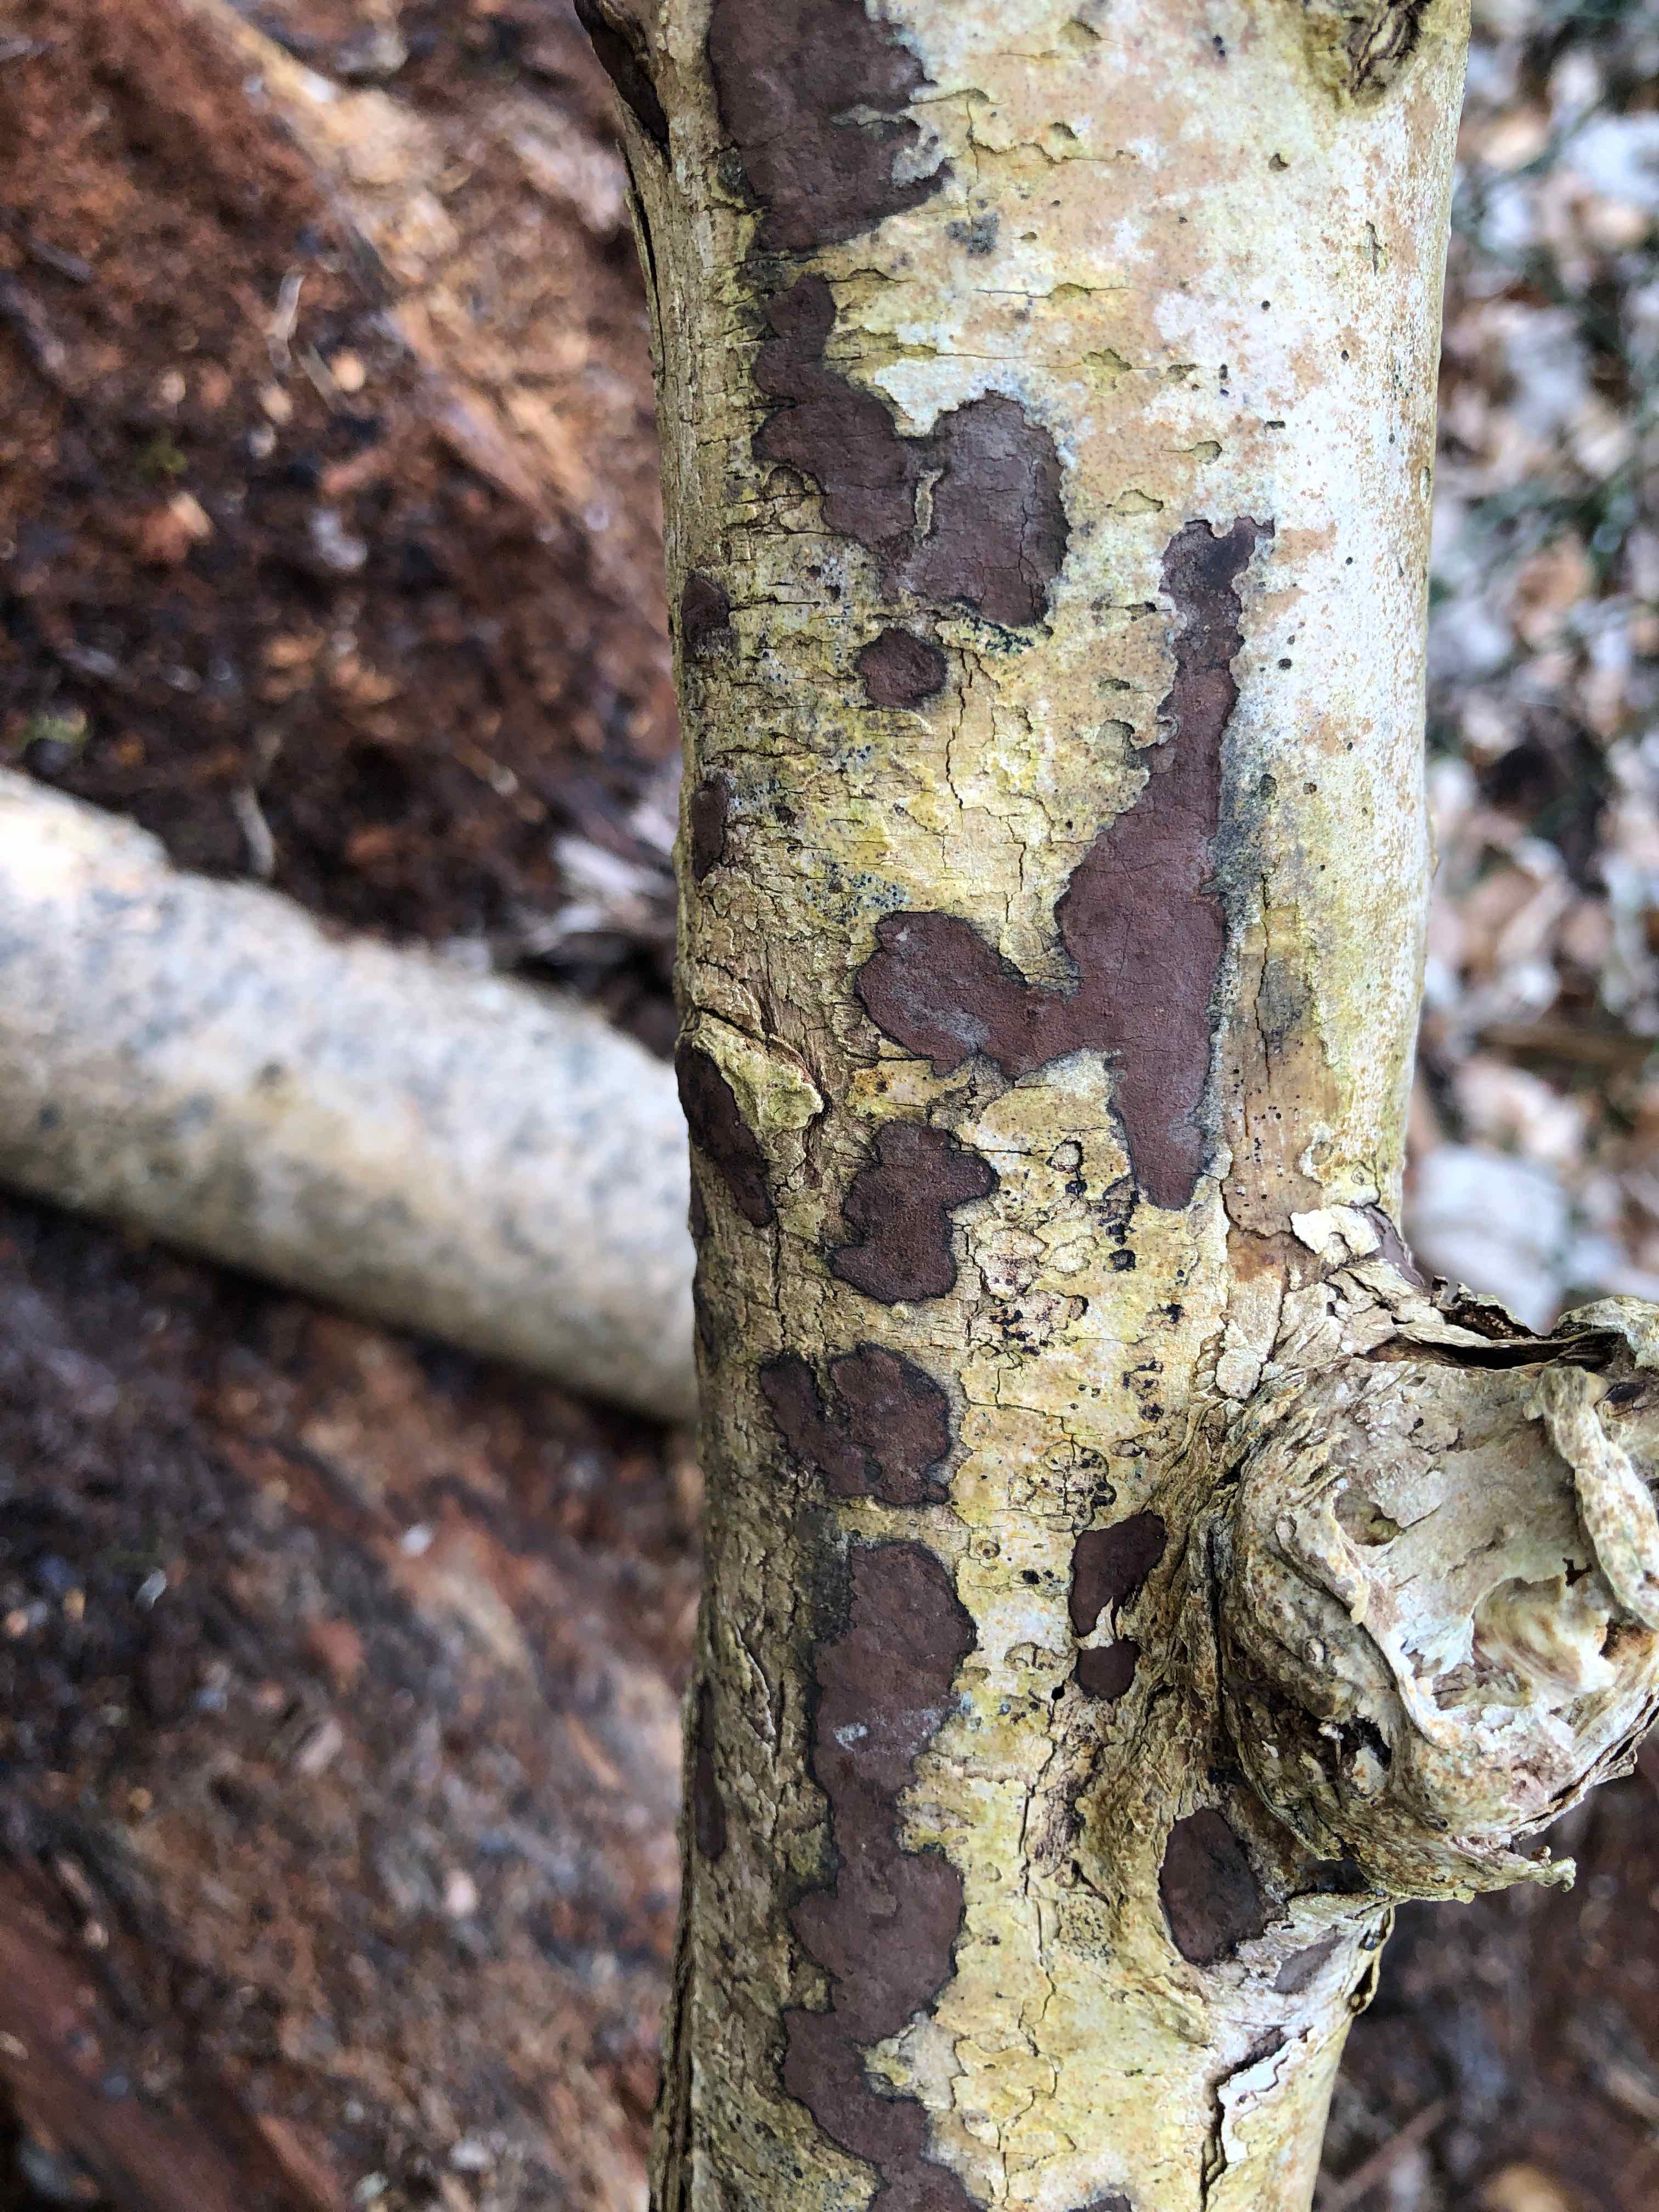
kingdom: Fungi
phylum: Ascomycota
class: Sordariomycetes
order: Xylariales
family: Hypoxylaceae
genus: Hypoxylon
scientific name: Hypoxylon petriniae
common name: nedsænket kulbær
